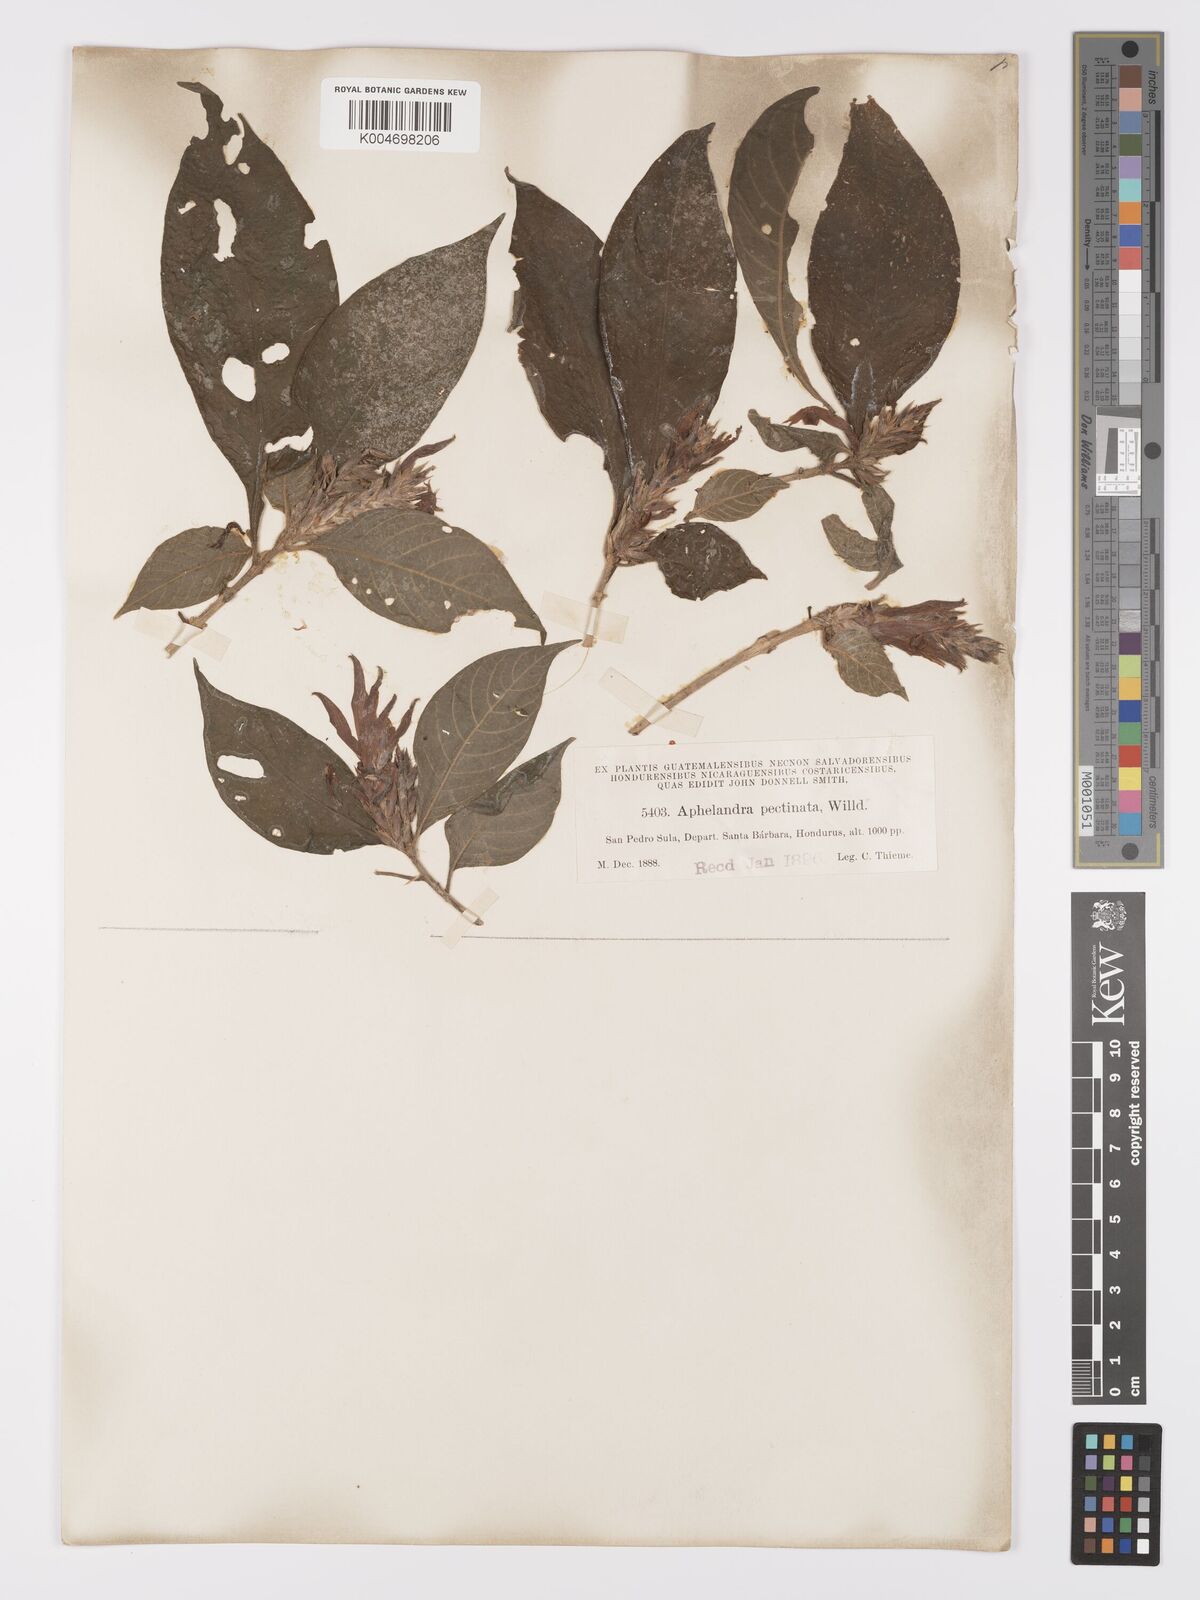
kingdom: Plantae
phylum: Tracheophyta
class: Magnoliopsida
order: Lamiales
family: Acanthaceae
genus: Aphelandra
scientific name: Aphelandra scabra
